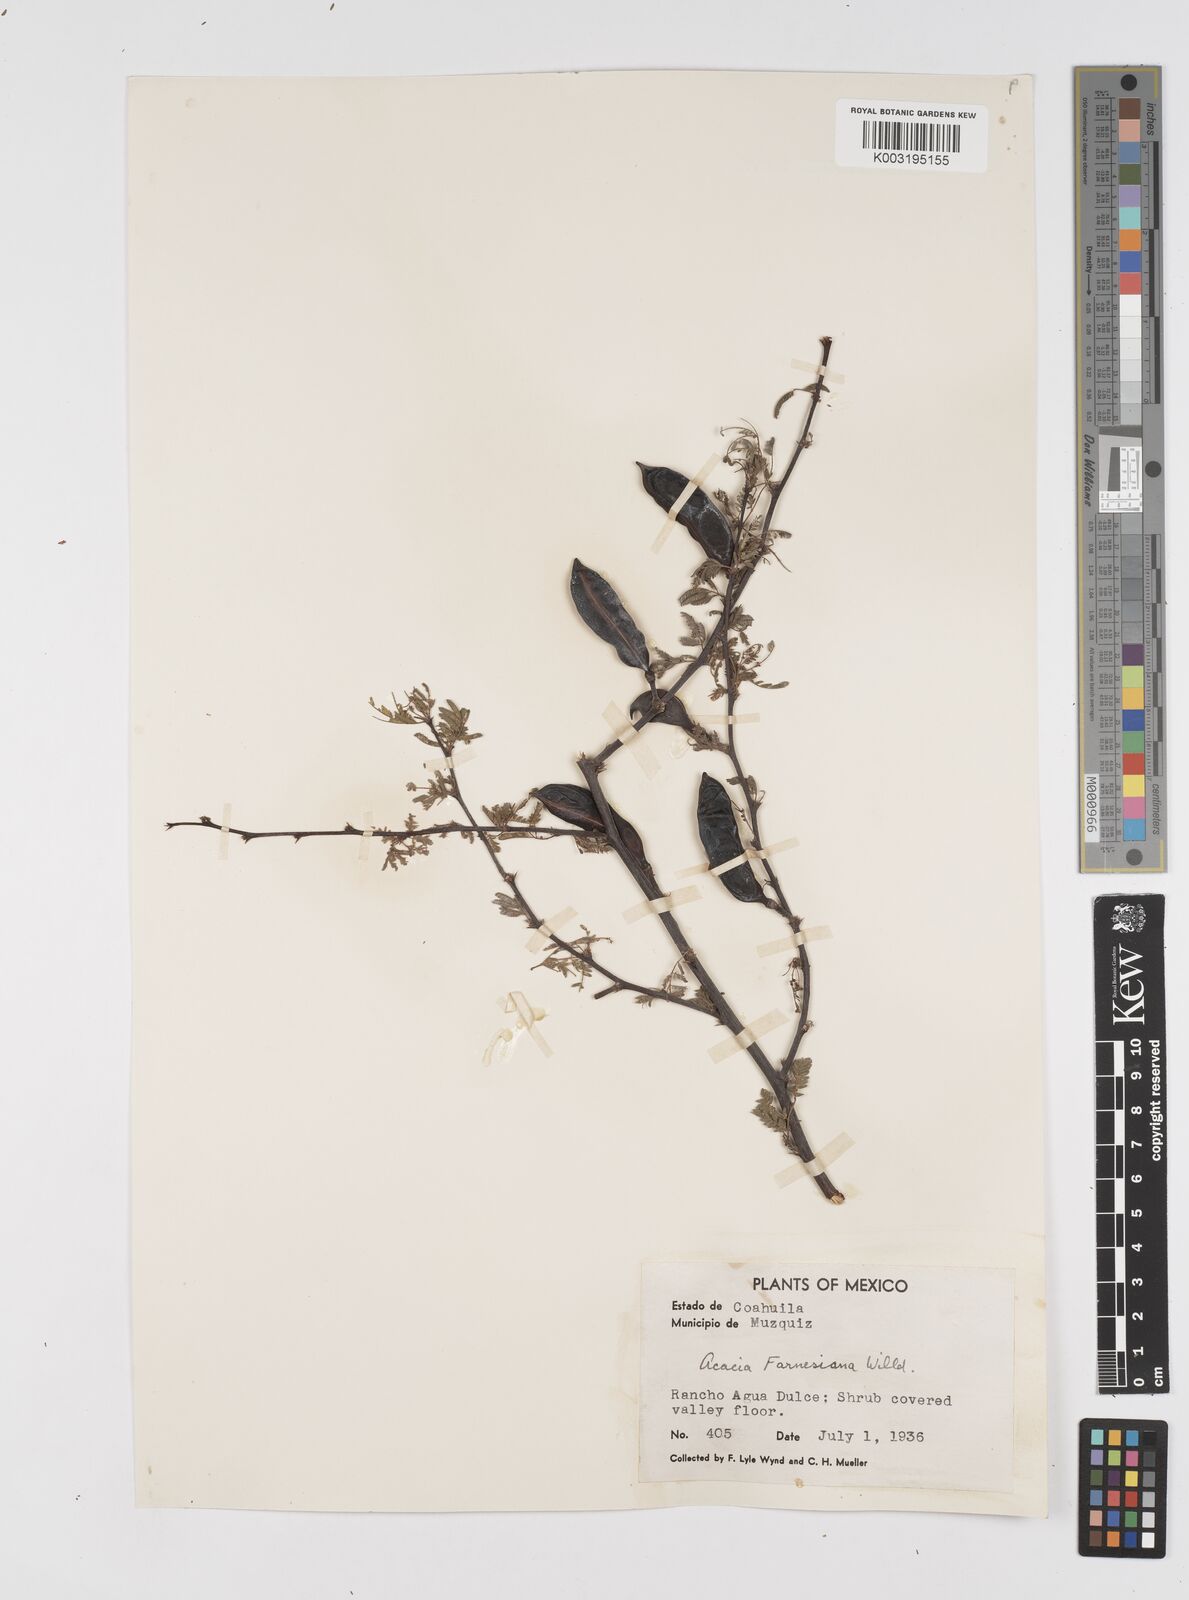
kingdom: Plantae
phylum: Tracheophyta
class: Magnoliopsida
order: Fabales
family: Fabaceae
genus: Vachellia
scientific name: Vachellia farnesiana
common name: Sweet acacia
